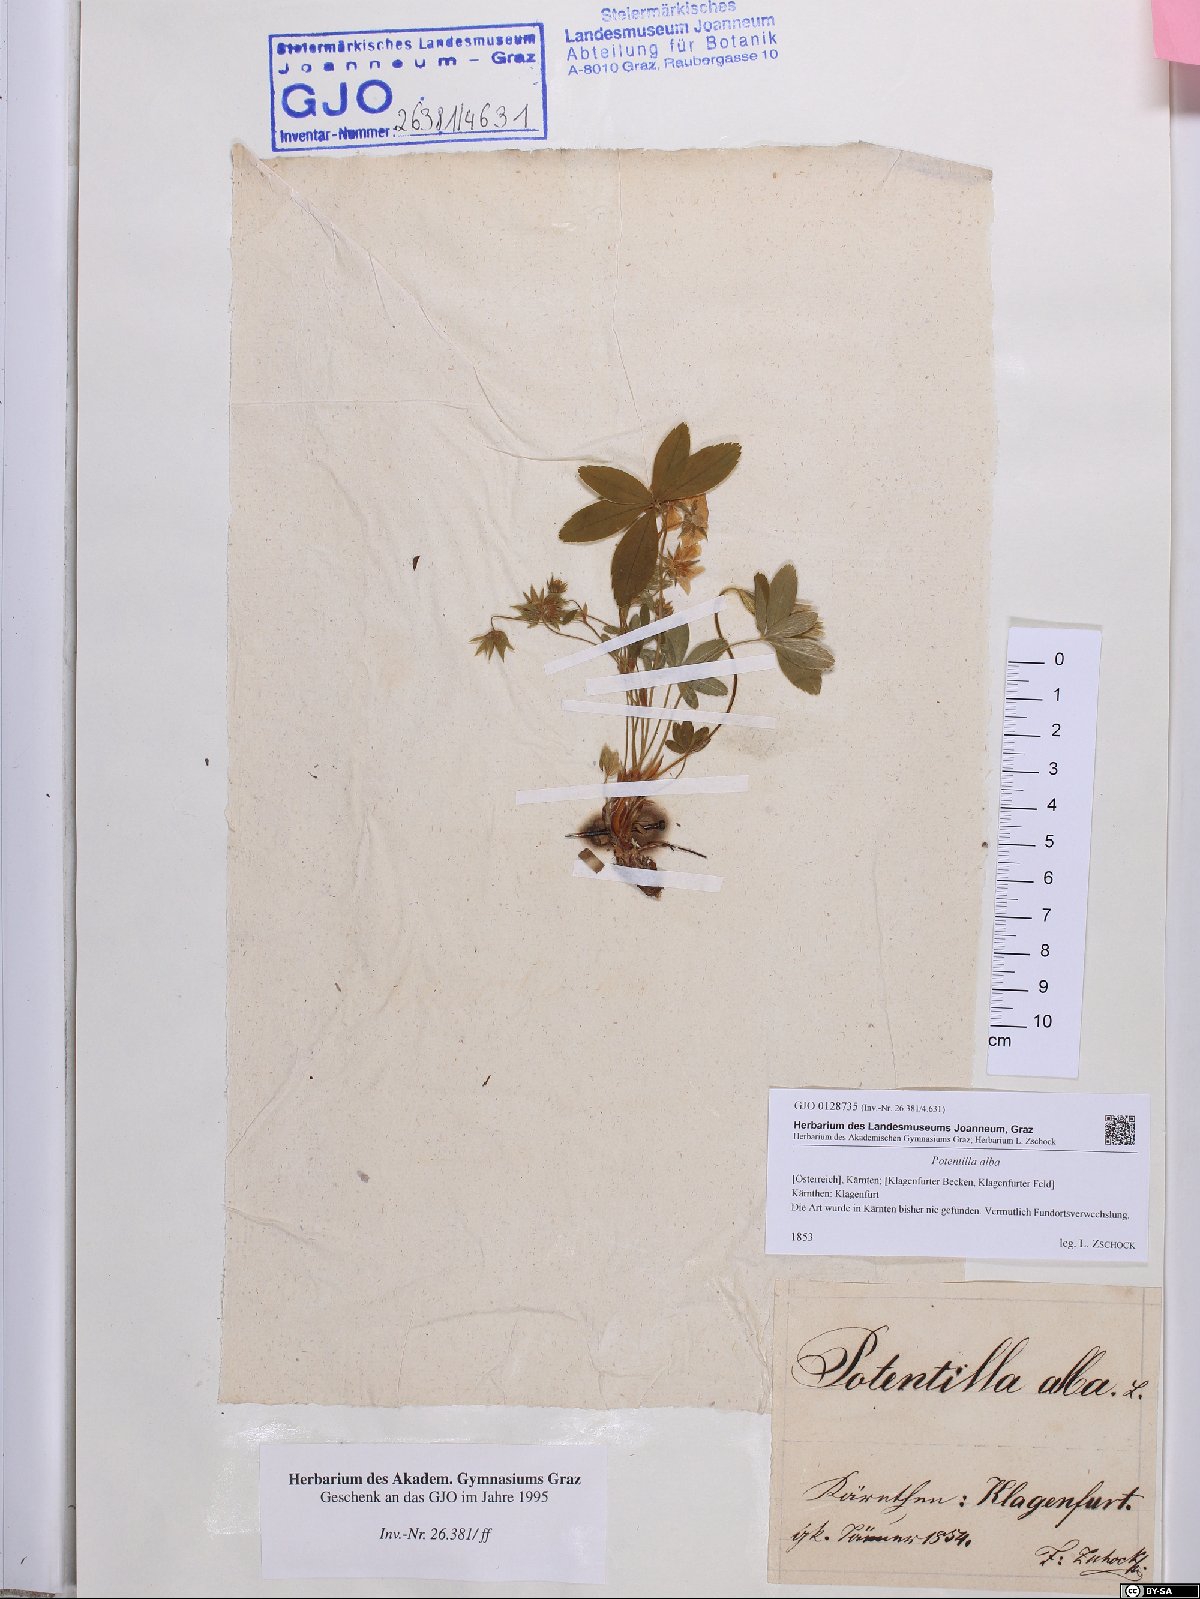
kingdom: Plantae
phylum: Tracheophyta
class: Magnoliopsida
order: Rosales
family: Rosaceae
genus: Potentilla
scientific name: Potentilla alba
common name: White cinquefoil
